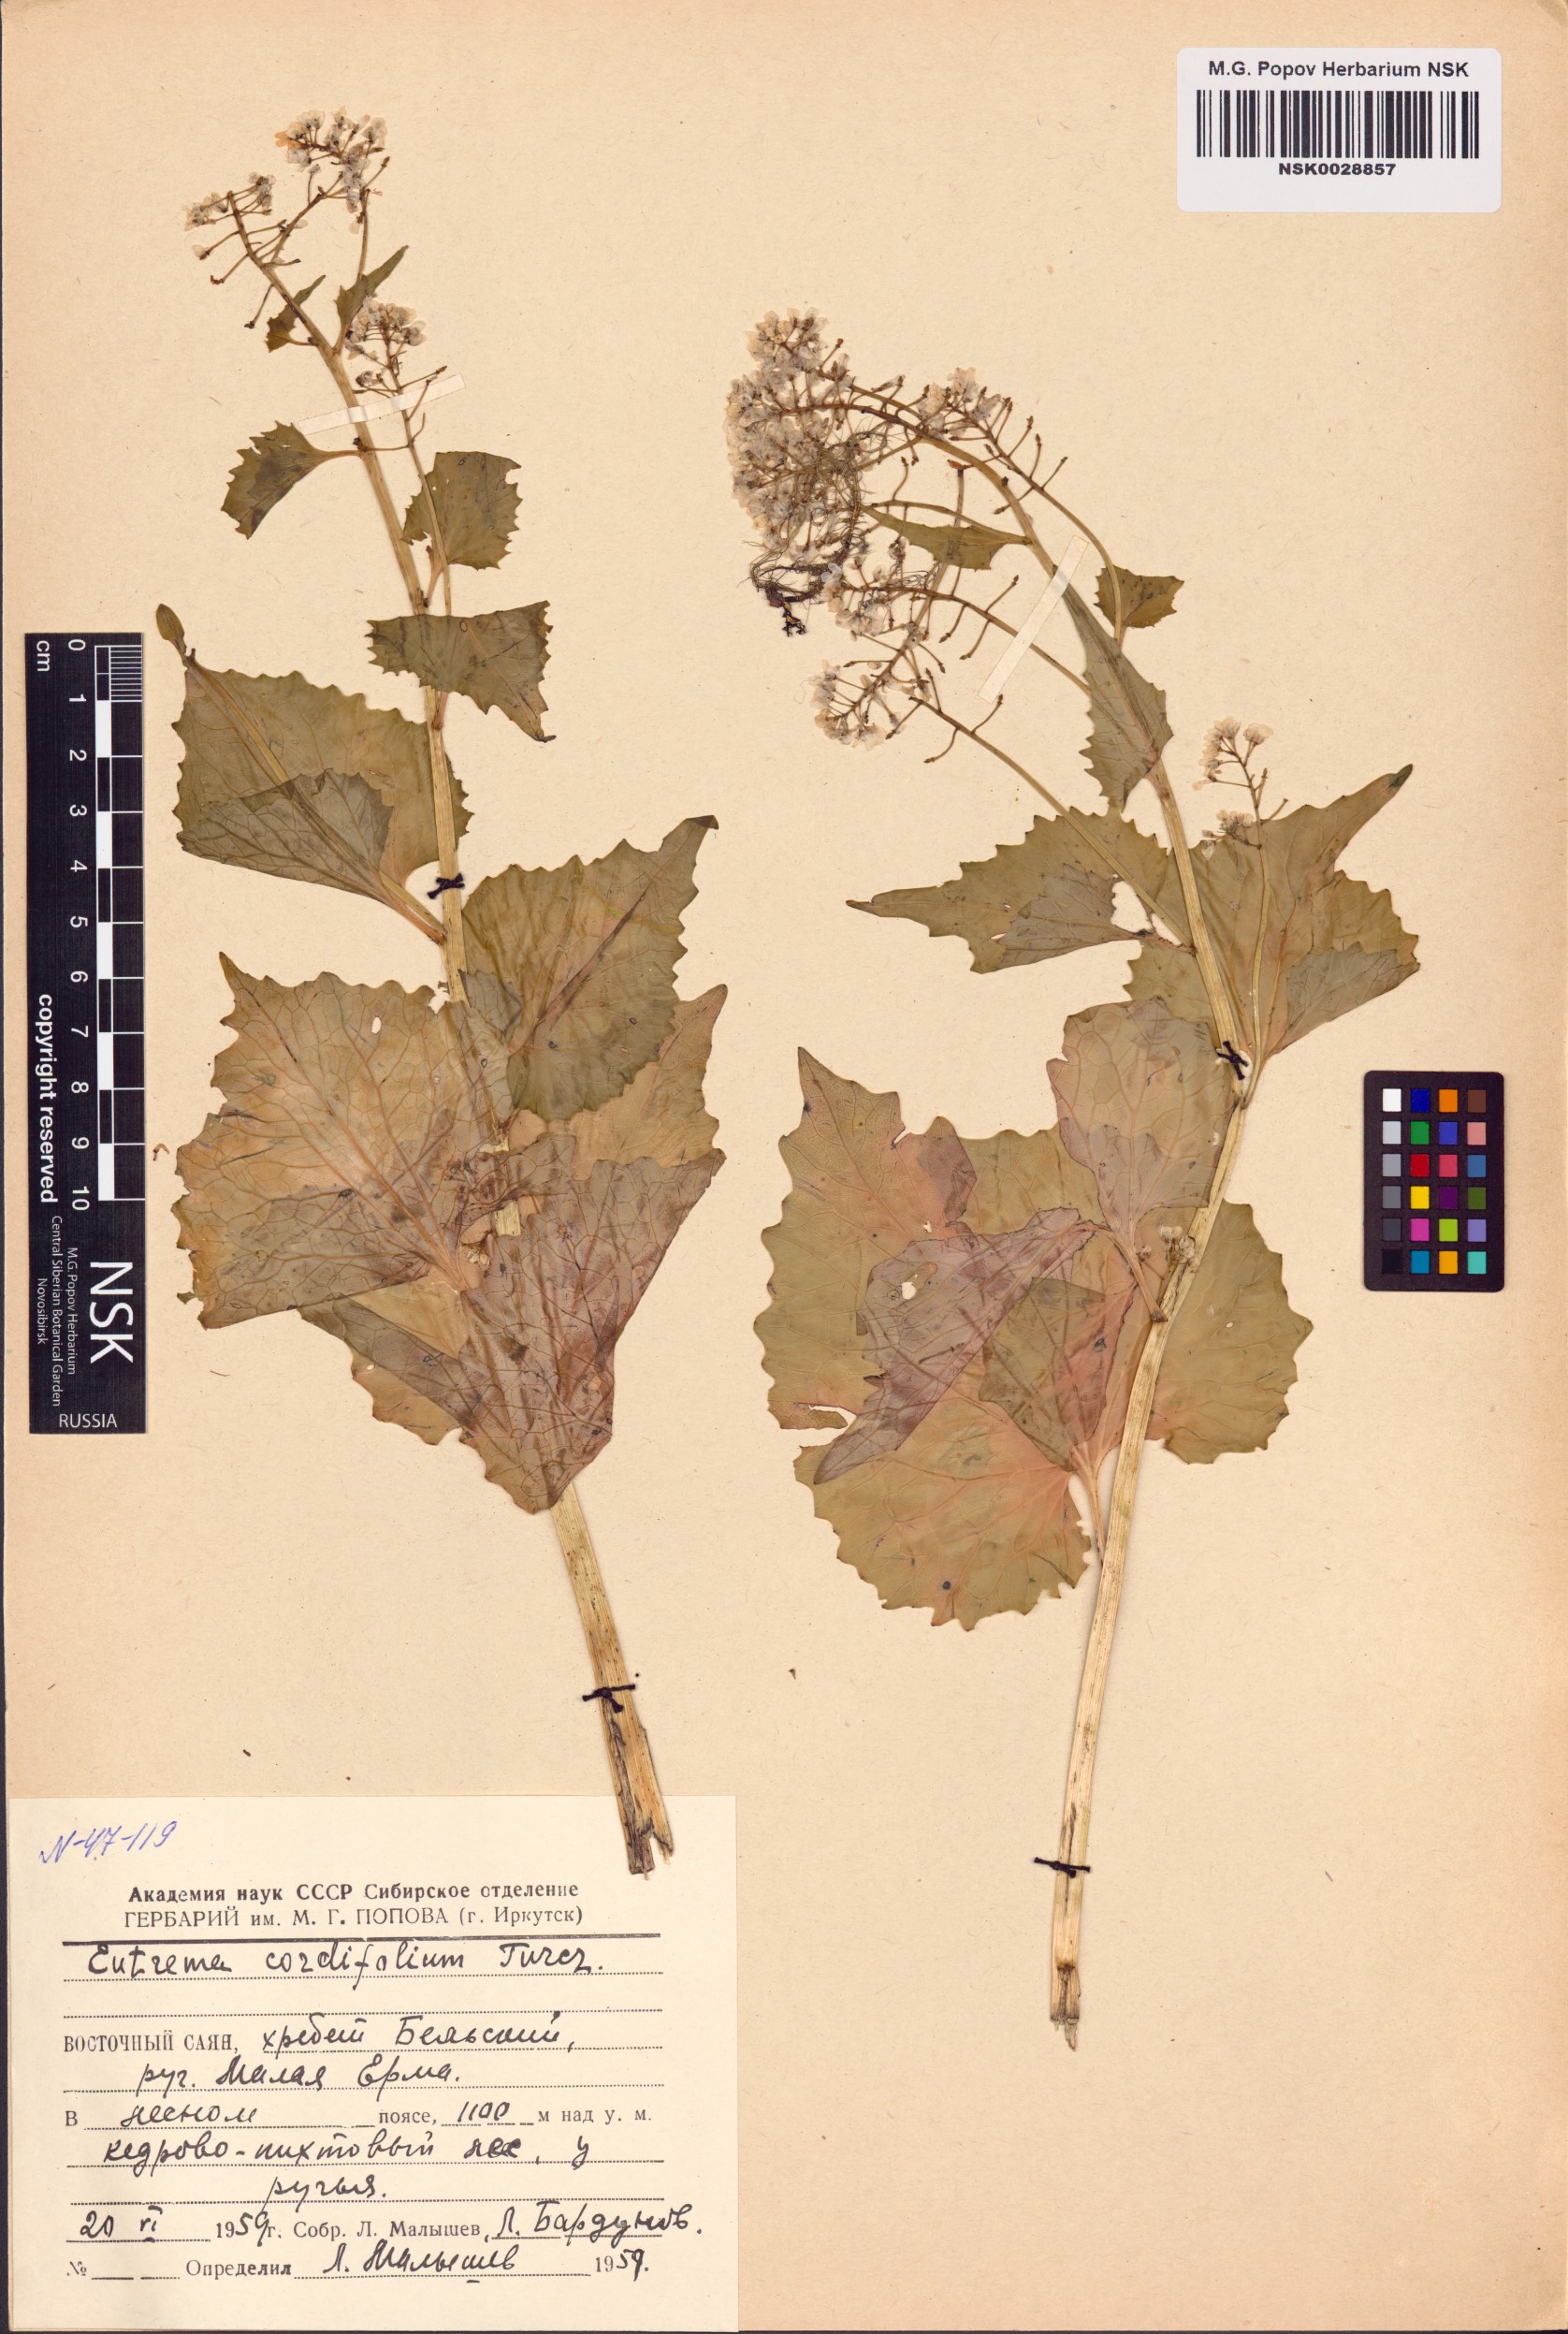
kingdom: Plantae
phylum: Tracheophyta
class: Magnoliopsida
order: Brassicales
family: Brassicaceae
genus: Eutrema
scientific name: Eutrema cordifolium
